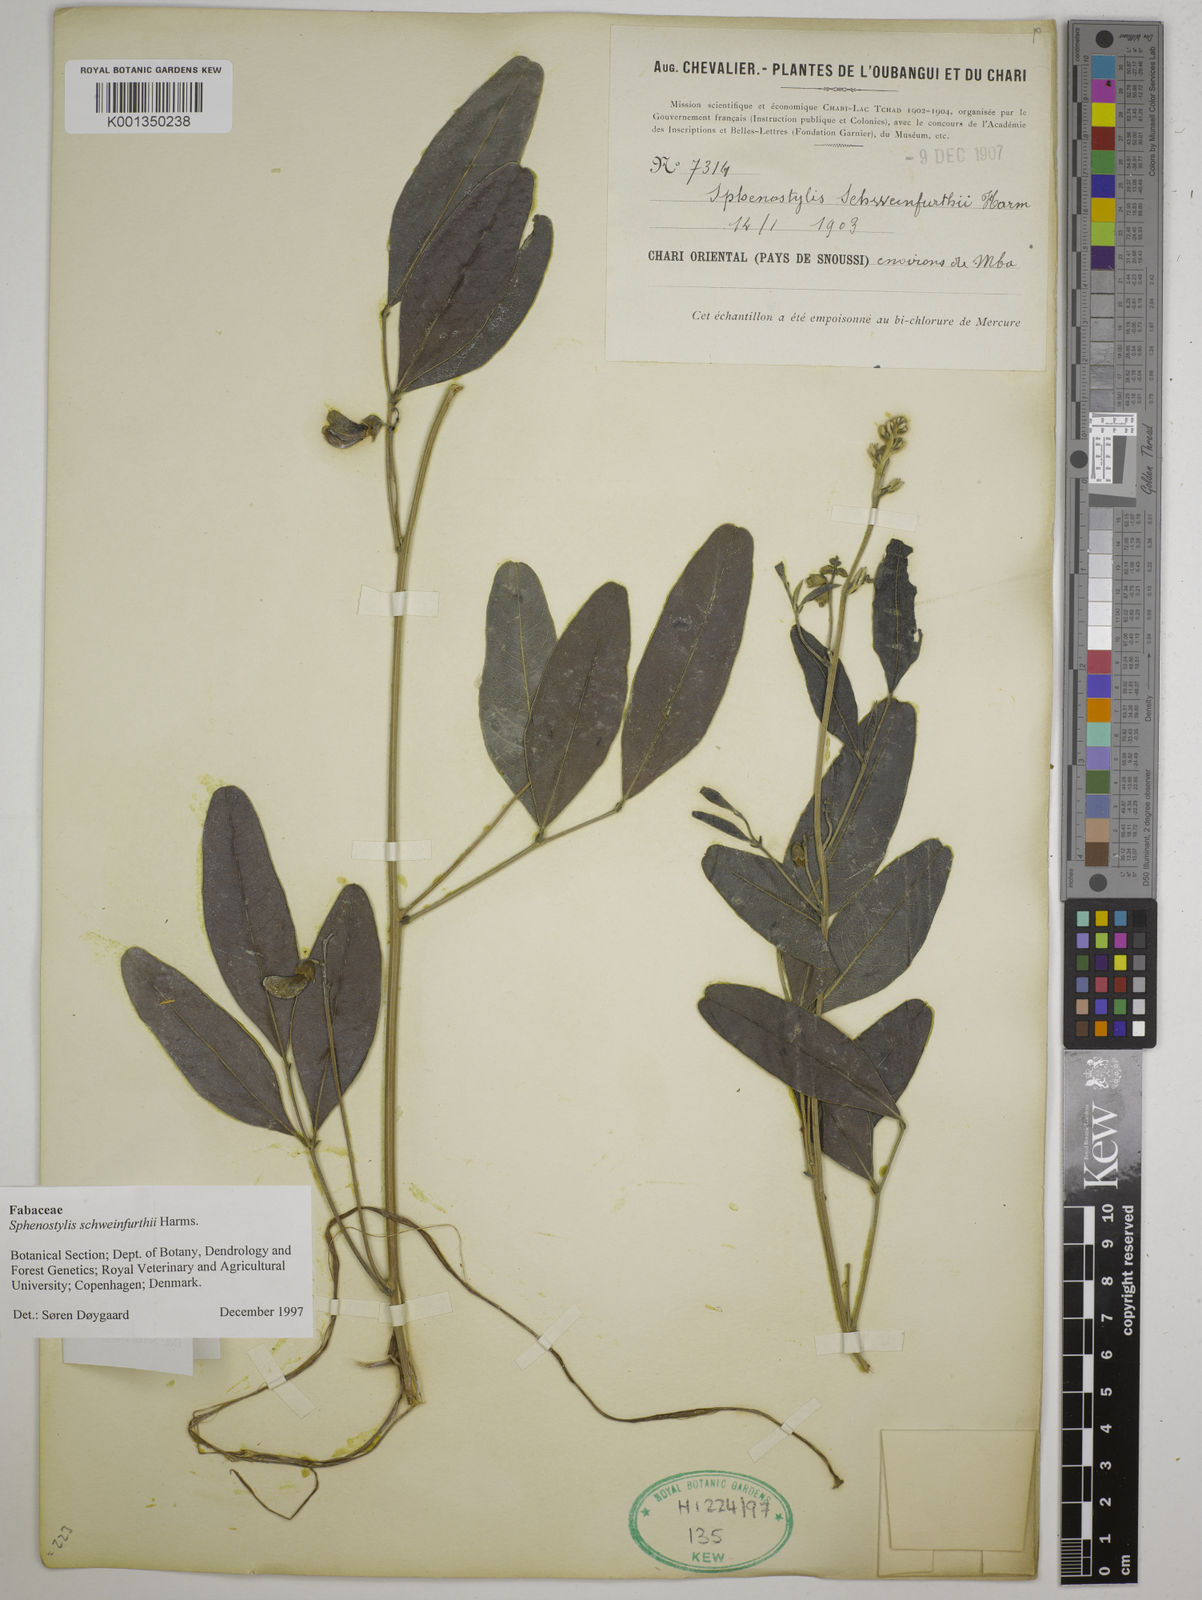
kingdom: Plantae
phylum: Tracheophyta
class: Magnoliopsida
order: Fabales
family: Fabaceae
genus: Sphenostylis
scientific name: Sphenostylis schweinfurthii
